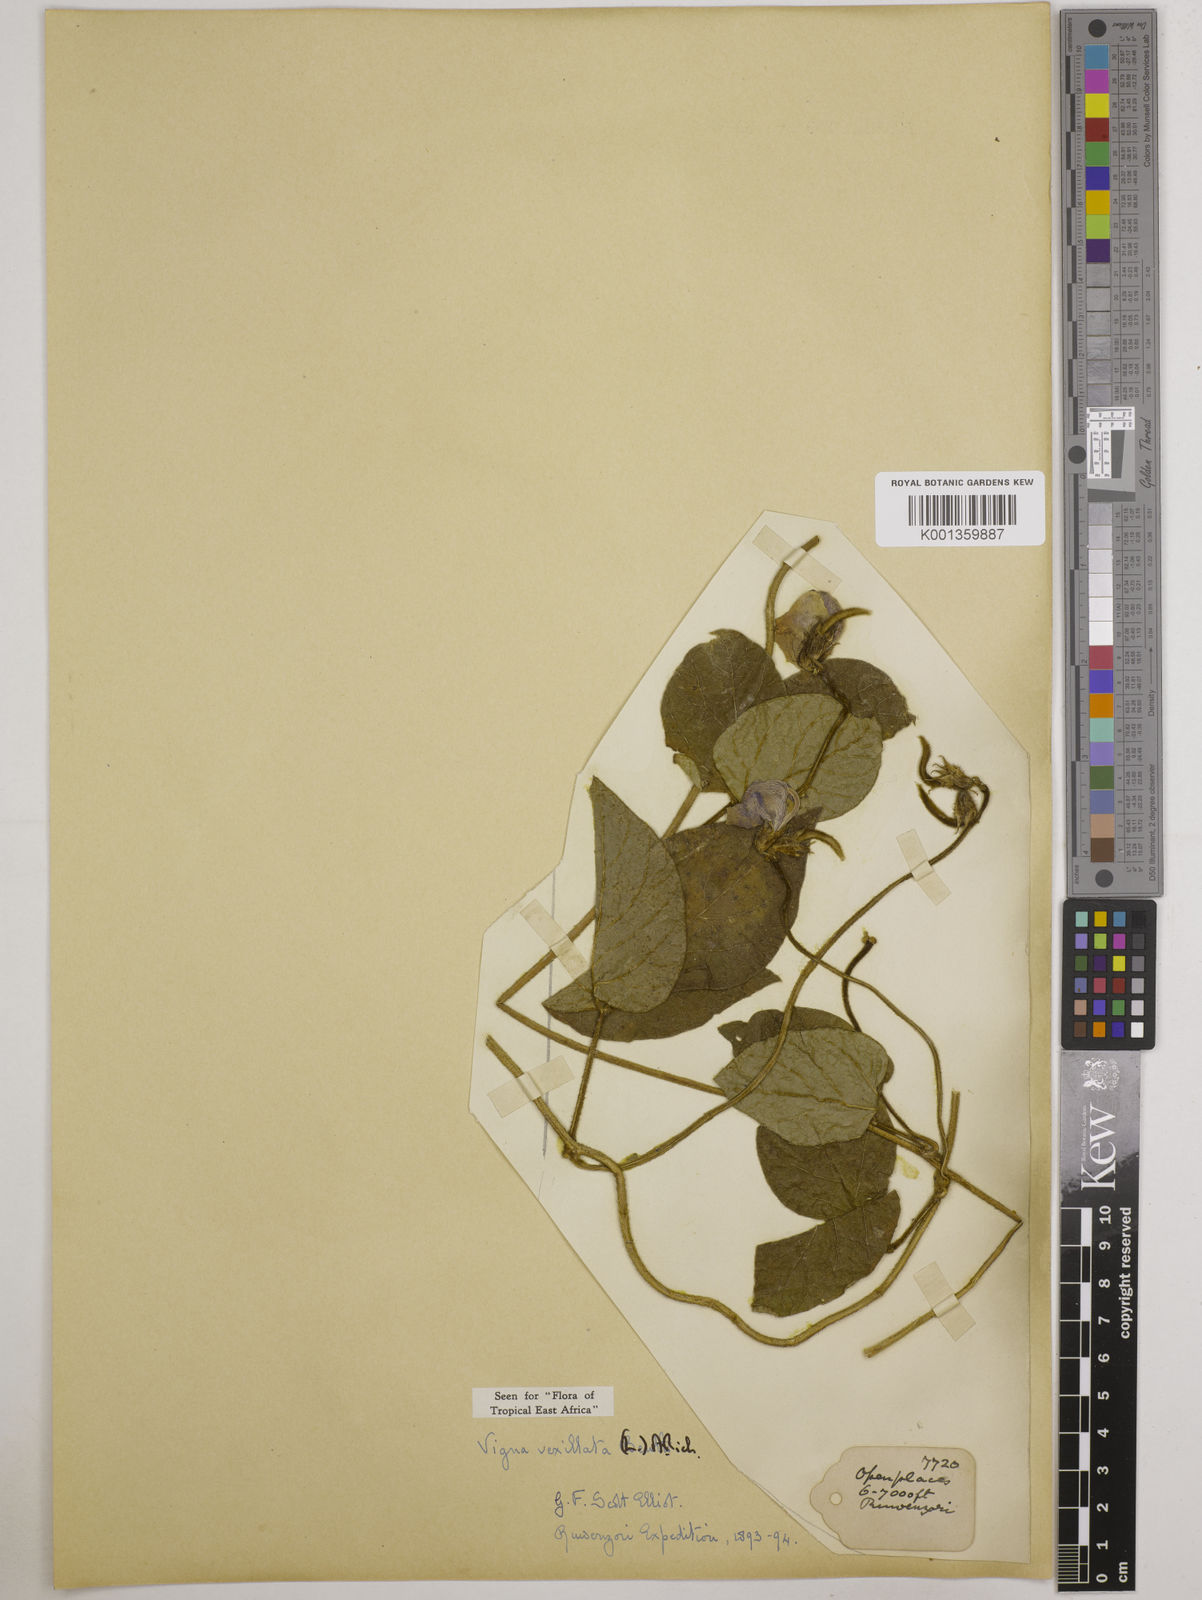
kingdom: Plantae
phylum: Tracheophyta
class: Magnoliopsida
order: Fabales
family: Fabaceae
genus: Vigna
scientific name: Vigna vexillata
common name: Zombi pea
